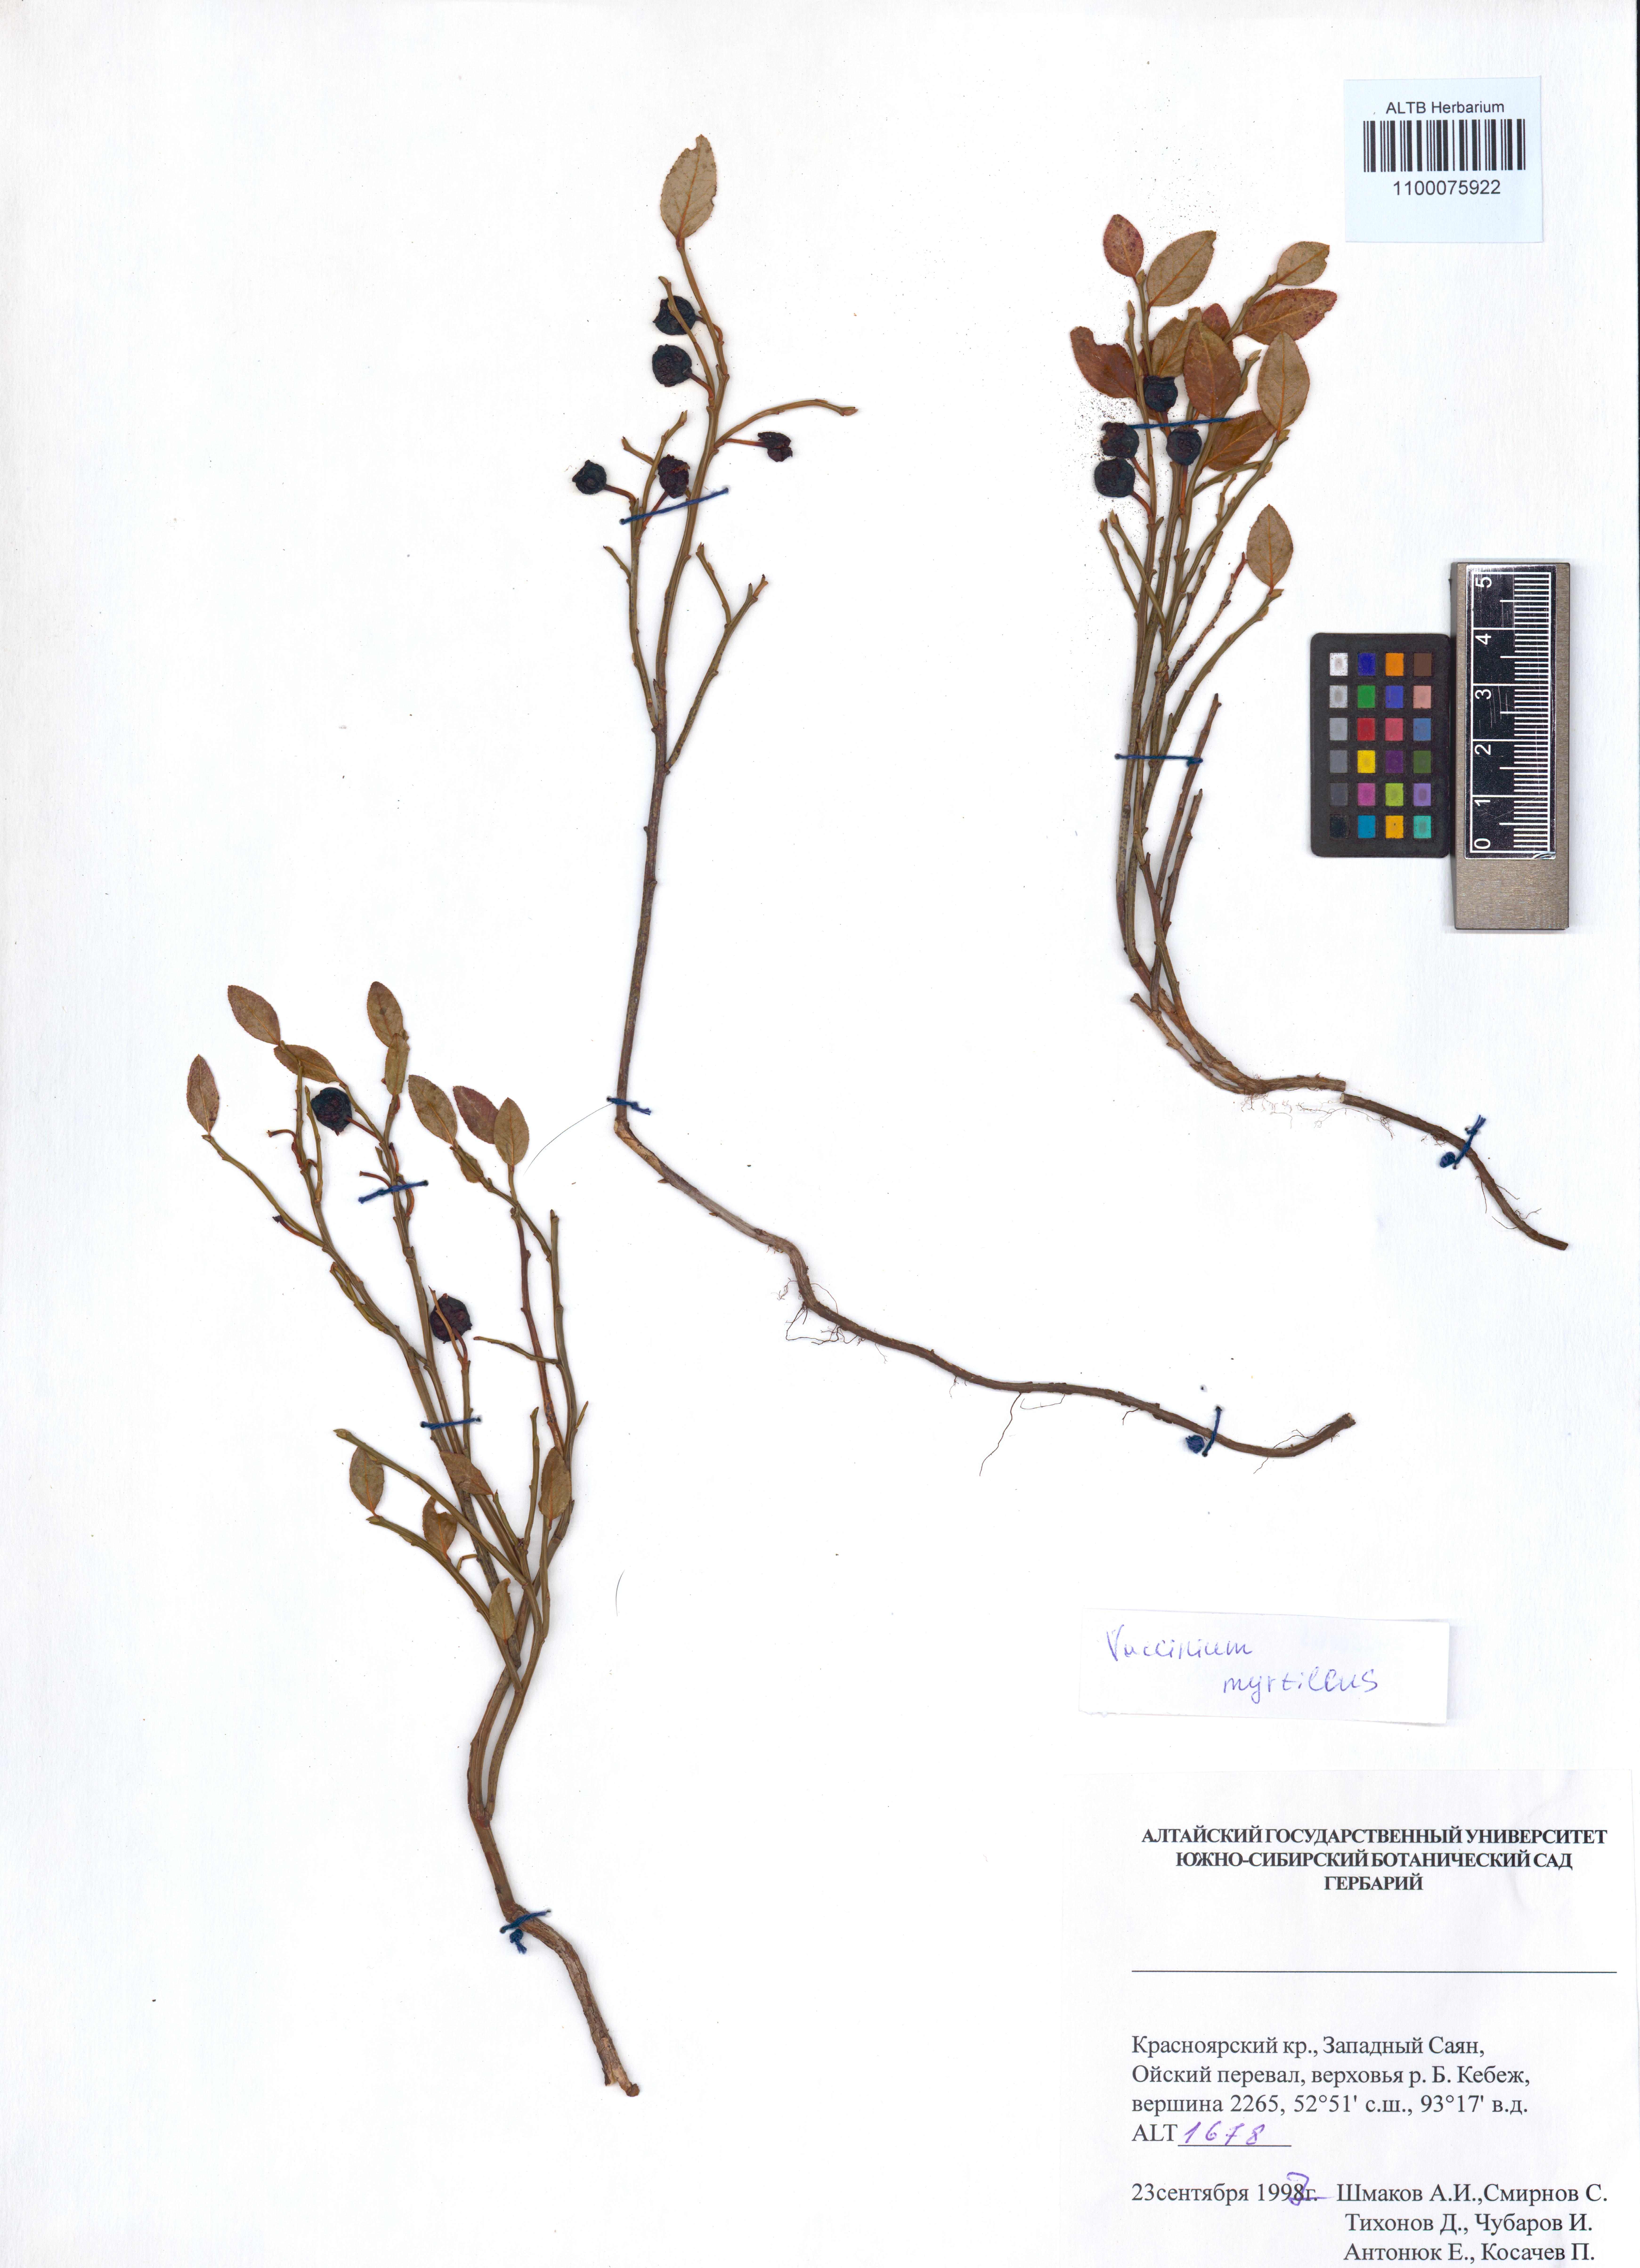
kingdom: Plantae
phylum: Tracheophyta
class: Magnoliopsida
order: Ericales
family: Ericaceae
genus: Vaccinium
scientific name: Vaccinium myrtillus
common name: Bilberry
